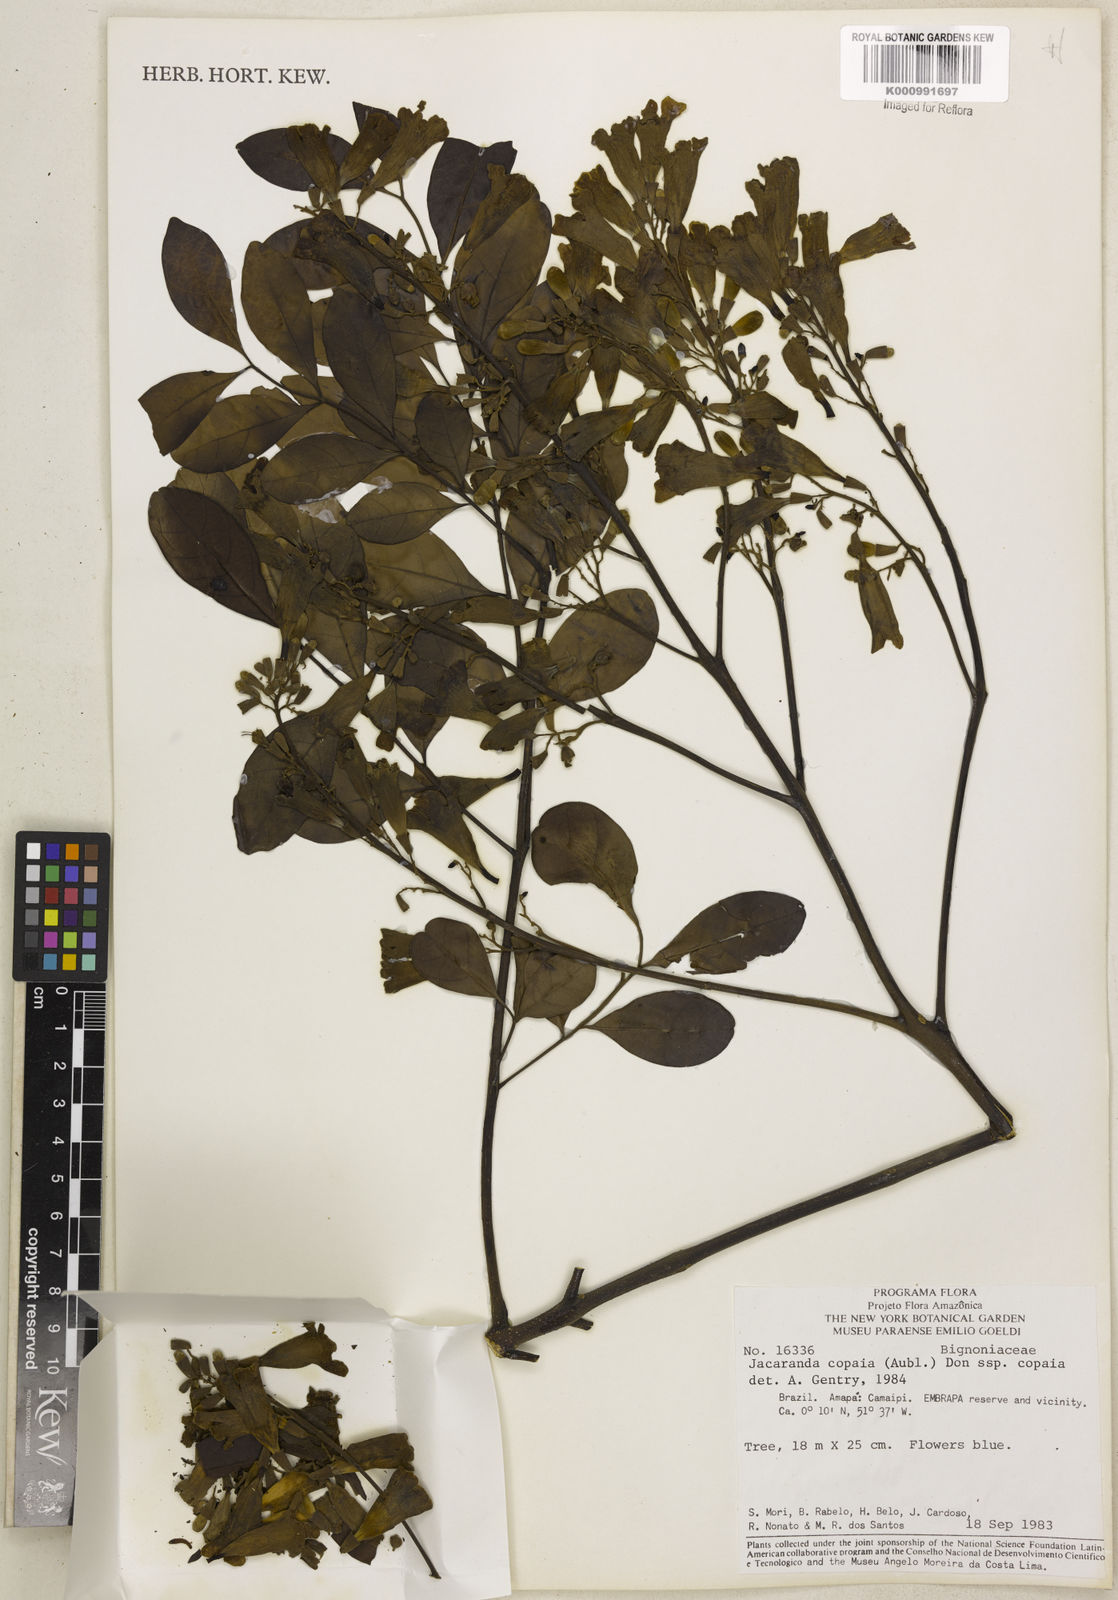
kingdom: Plantae
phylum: Tracheophyta
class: Magnoliopsida
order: Lamiales
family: Bignoniaceae
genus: Jacaranda
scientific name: Jacaranda copaia
